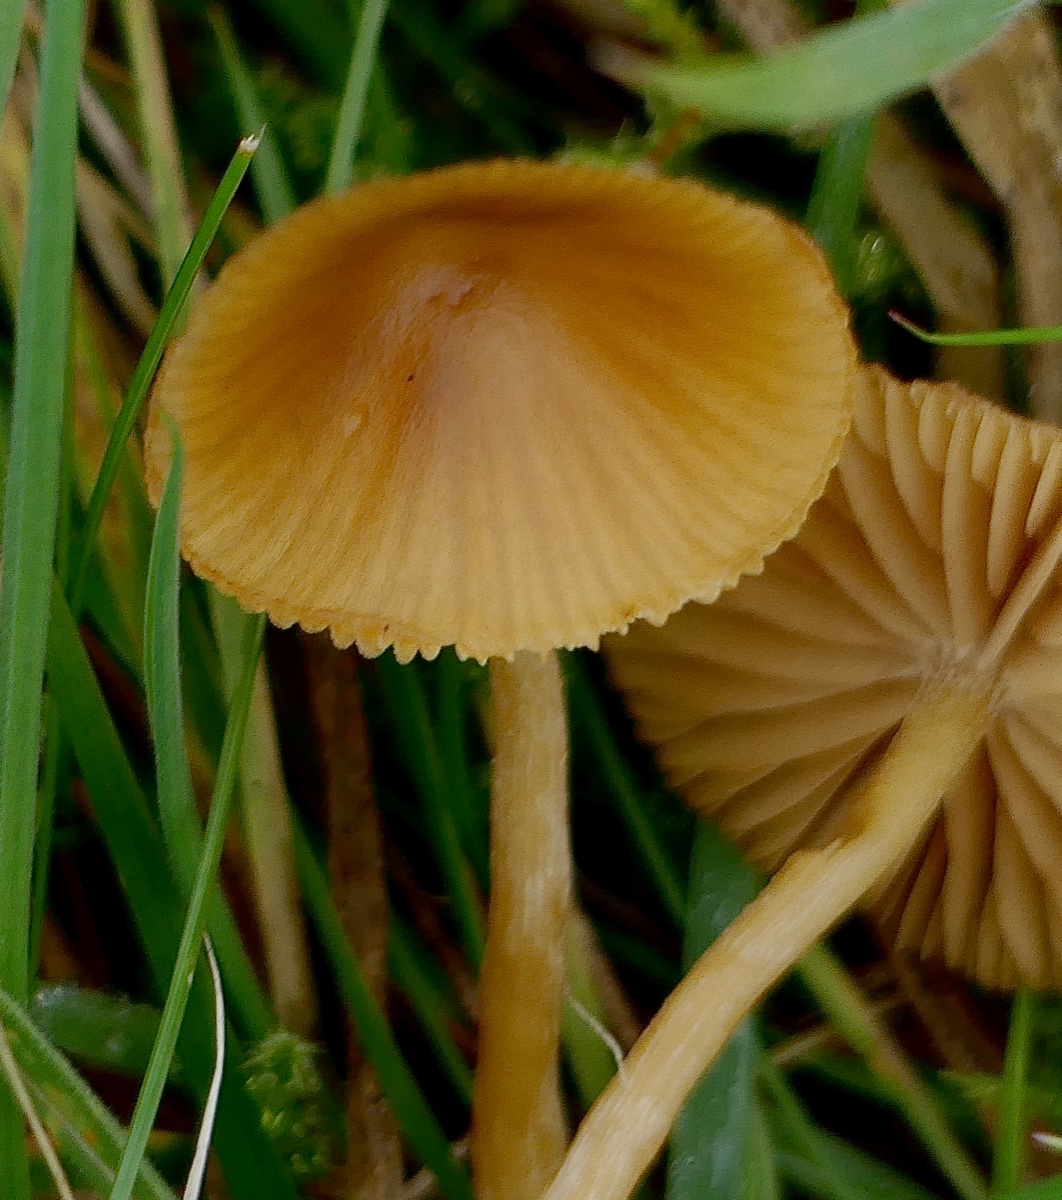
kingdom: Fungi
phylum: Basidiomycota
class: Agaricomycetes
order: Agaricales
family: Hymenogastraceae
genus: Galerina
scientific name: Galerina
